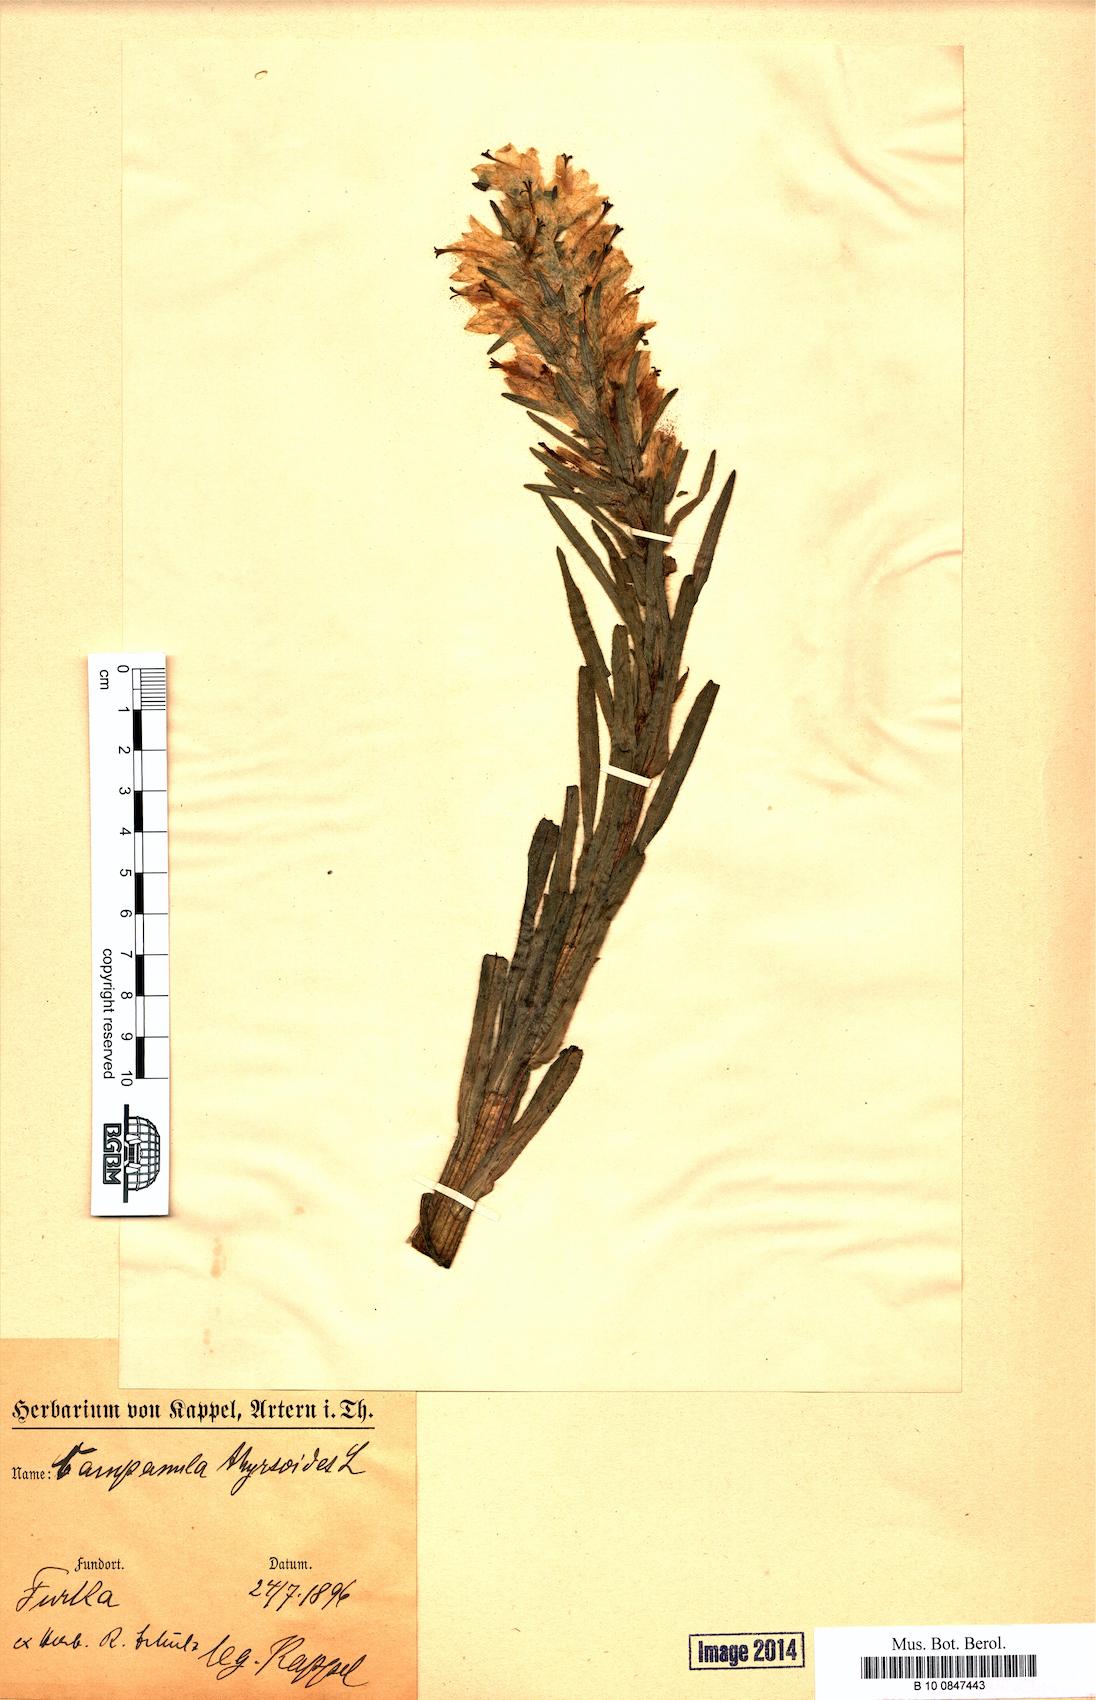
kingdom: Plantae
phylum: Tracheophyta
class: Magnoliopsida
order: Asterales
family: Campanulaceae
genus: Campanula
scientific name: Campanula thyrsoides
